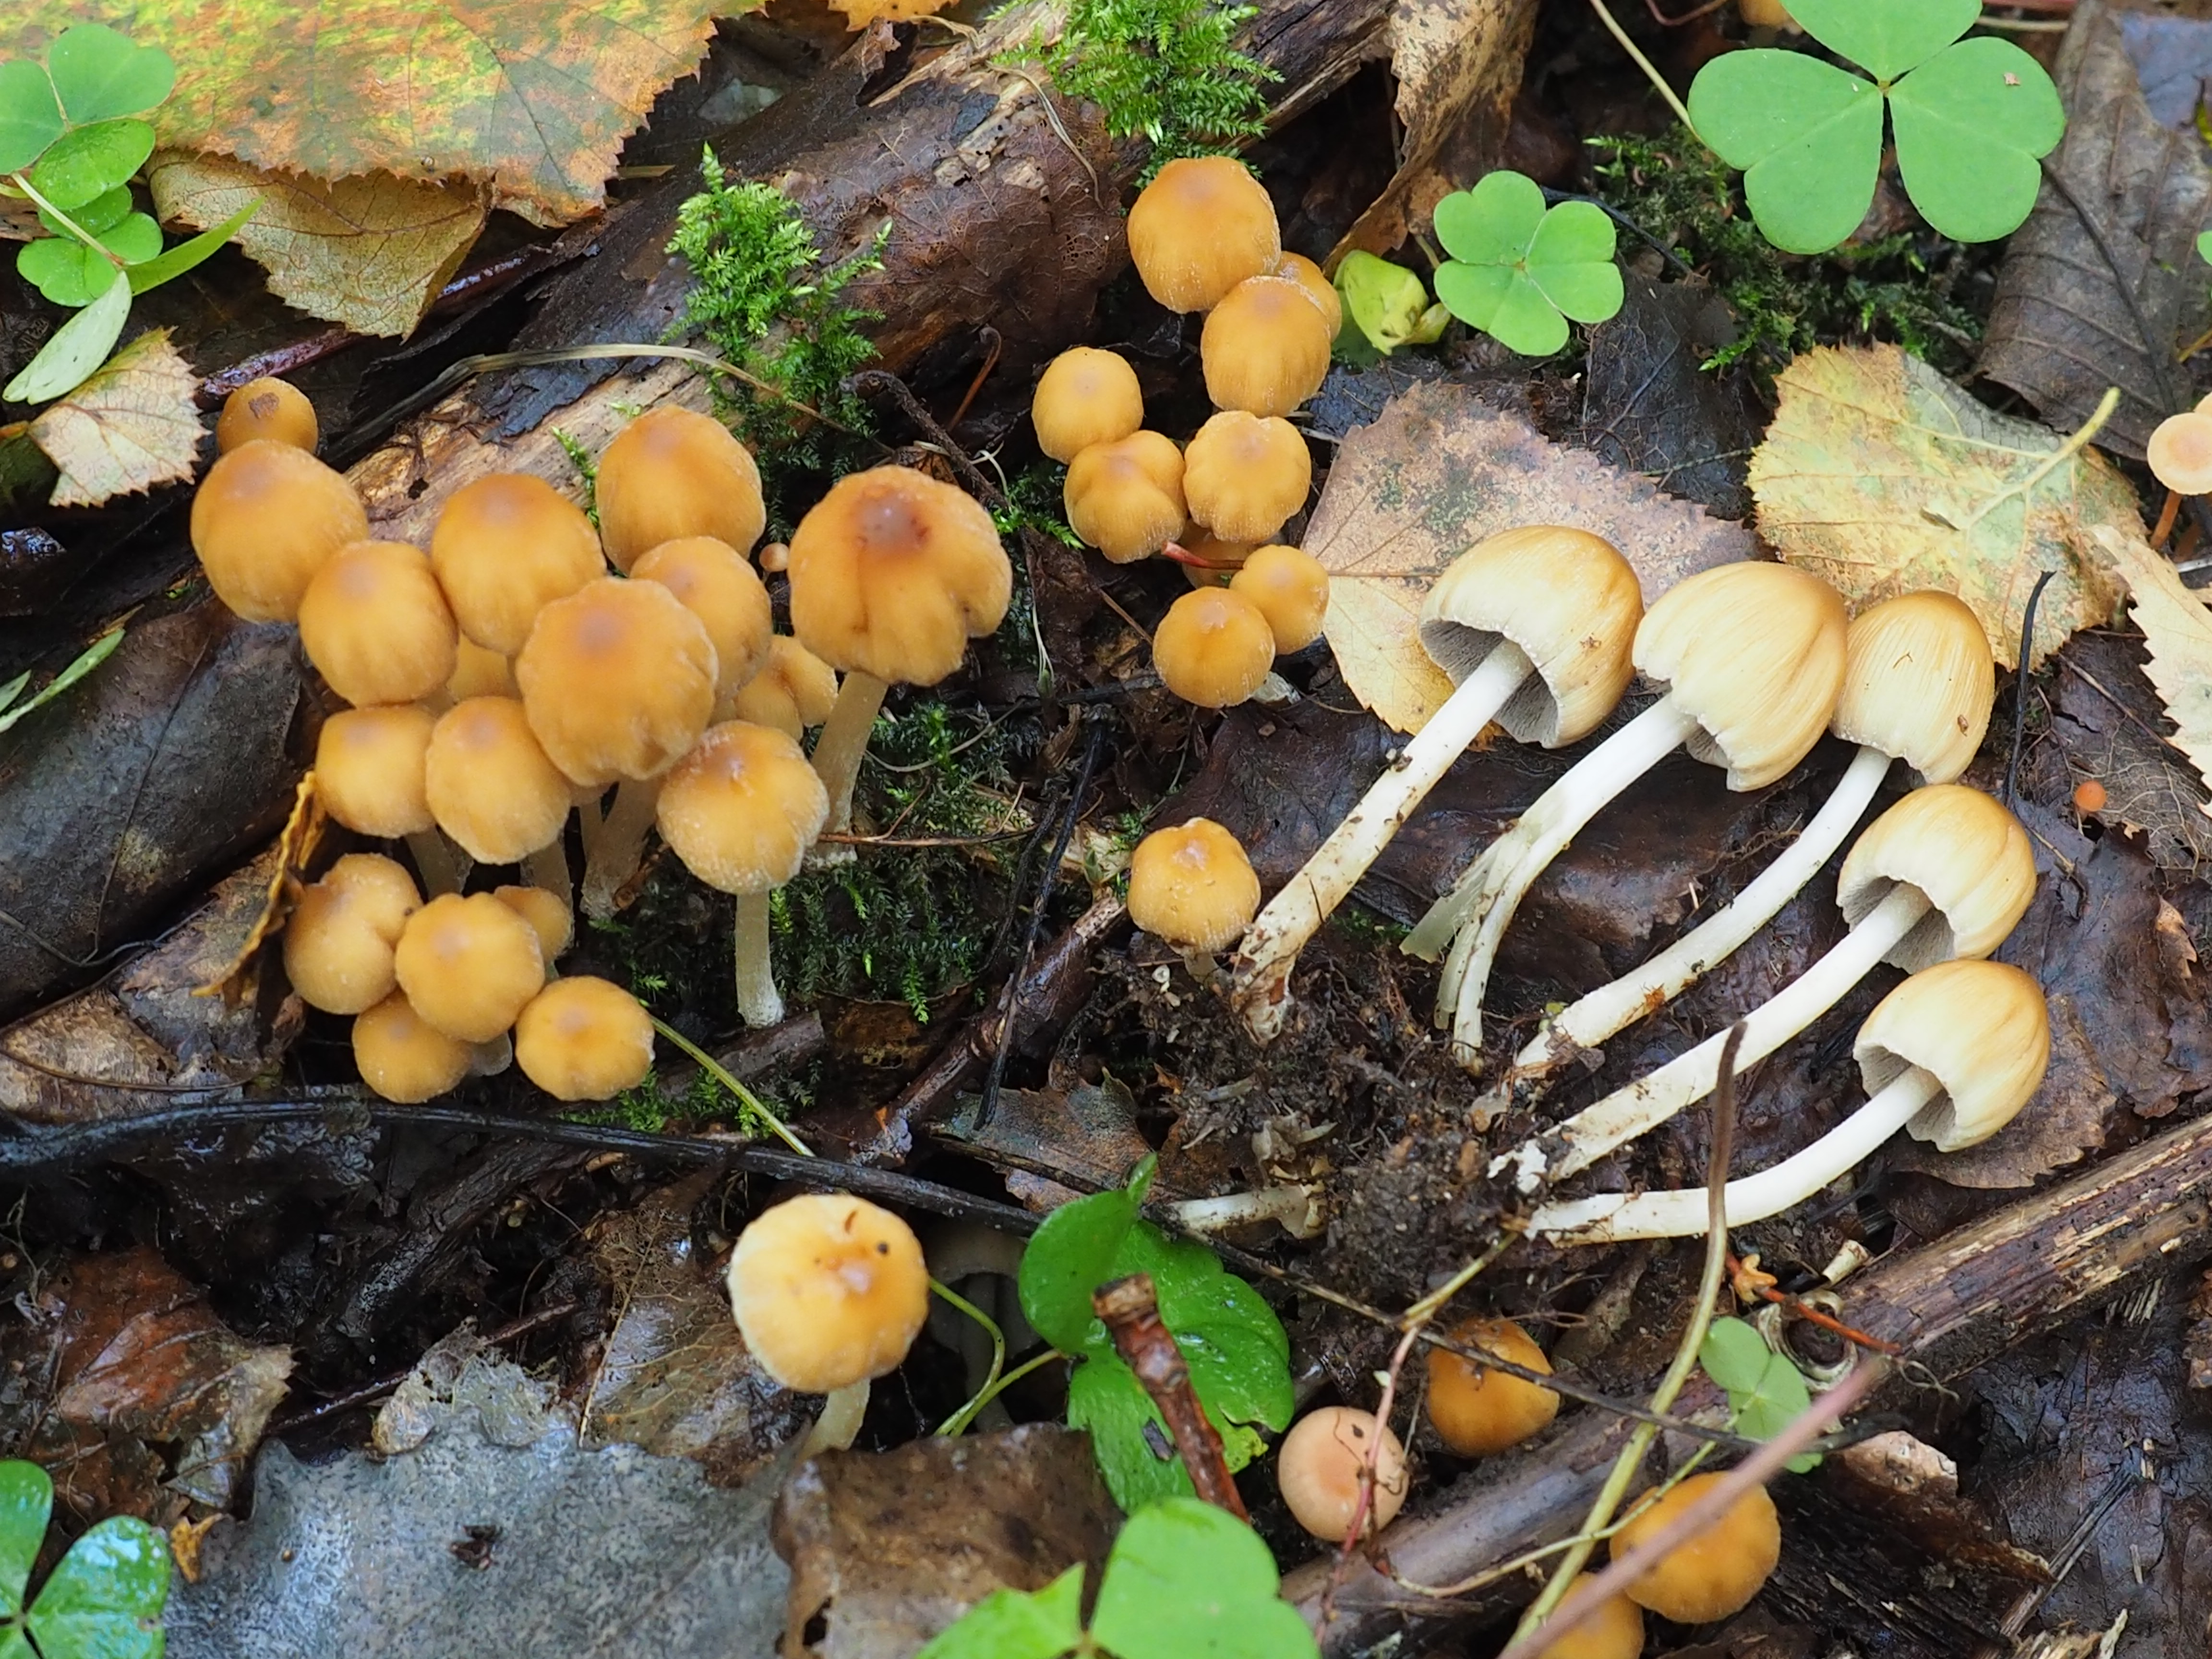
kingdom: Fungi
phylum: Basidiomycota
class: Agaricomycetes
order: Agaricales
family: Psathyrellaceae
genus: Coprinellus
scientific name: Coprinellus saccharinus
